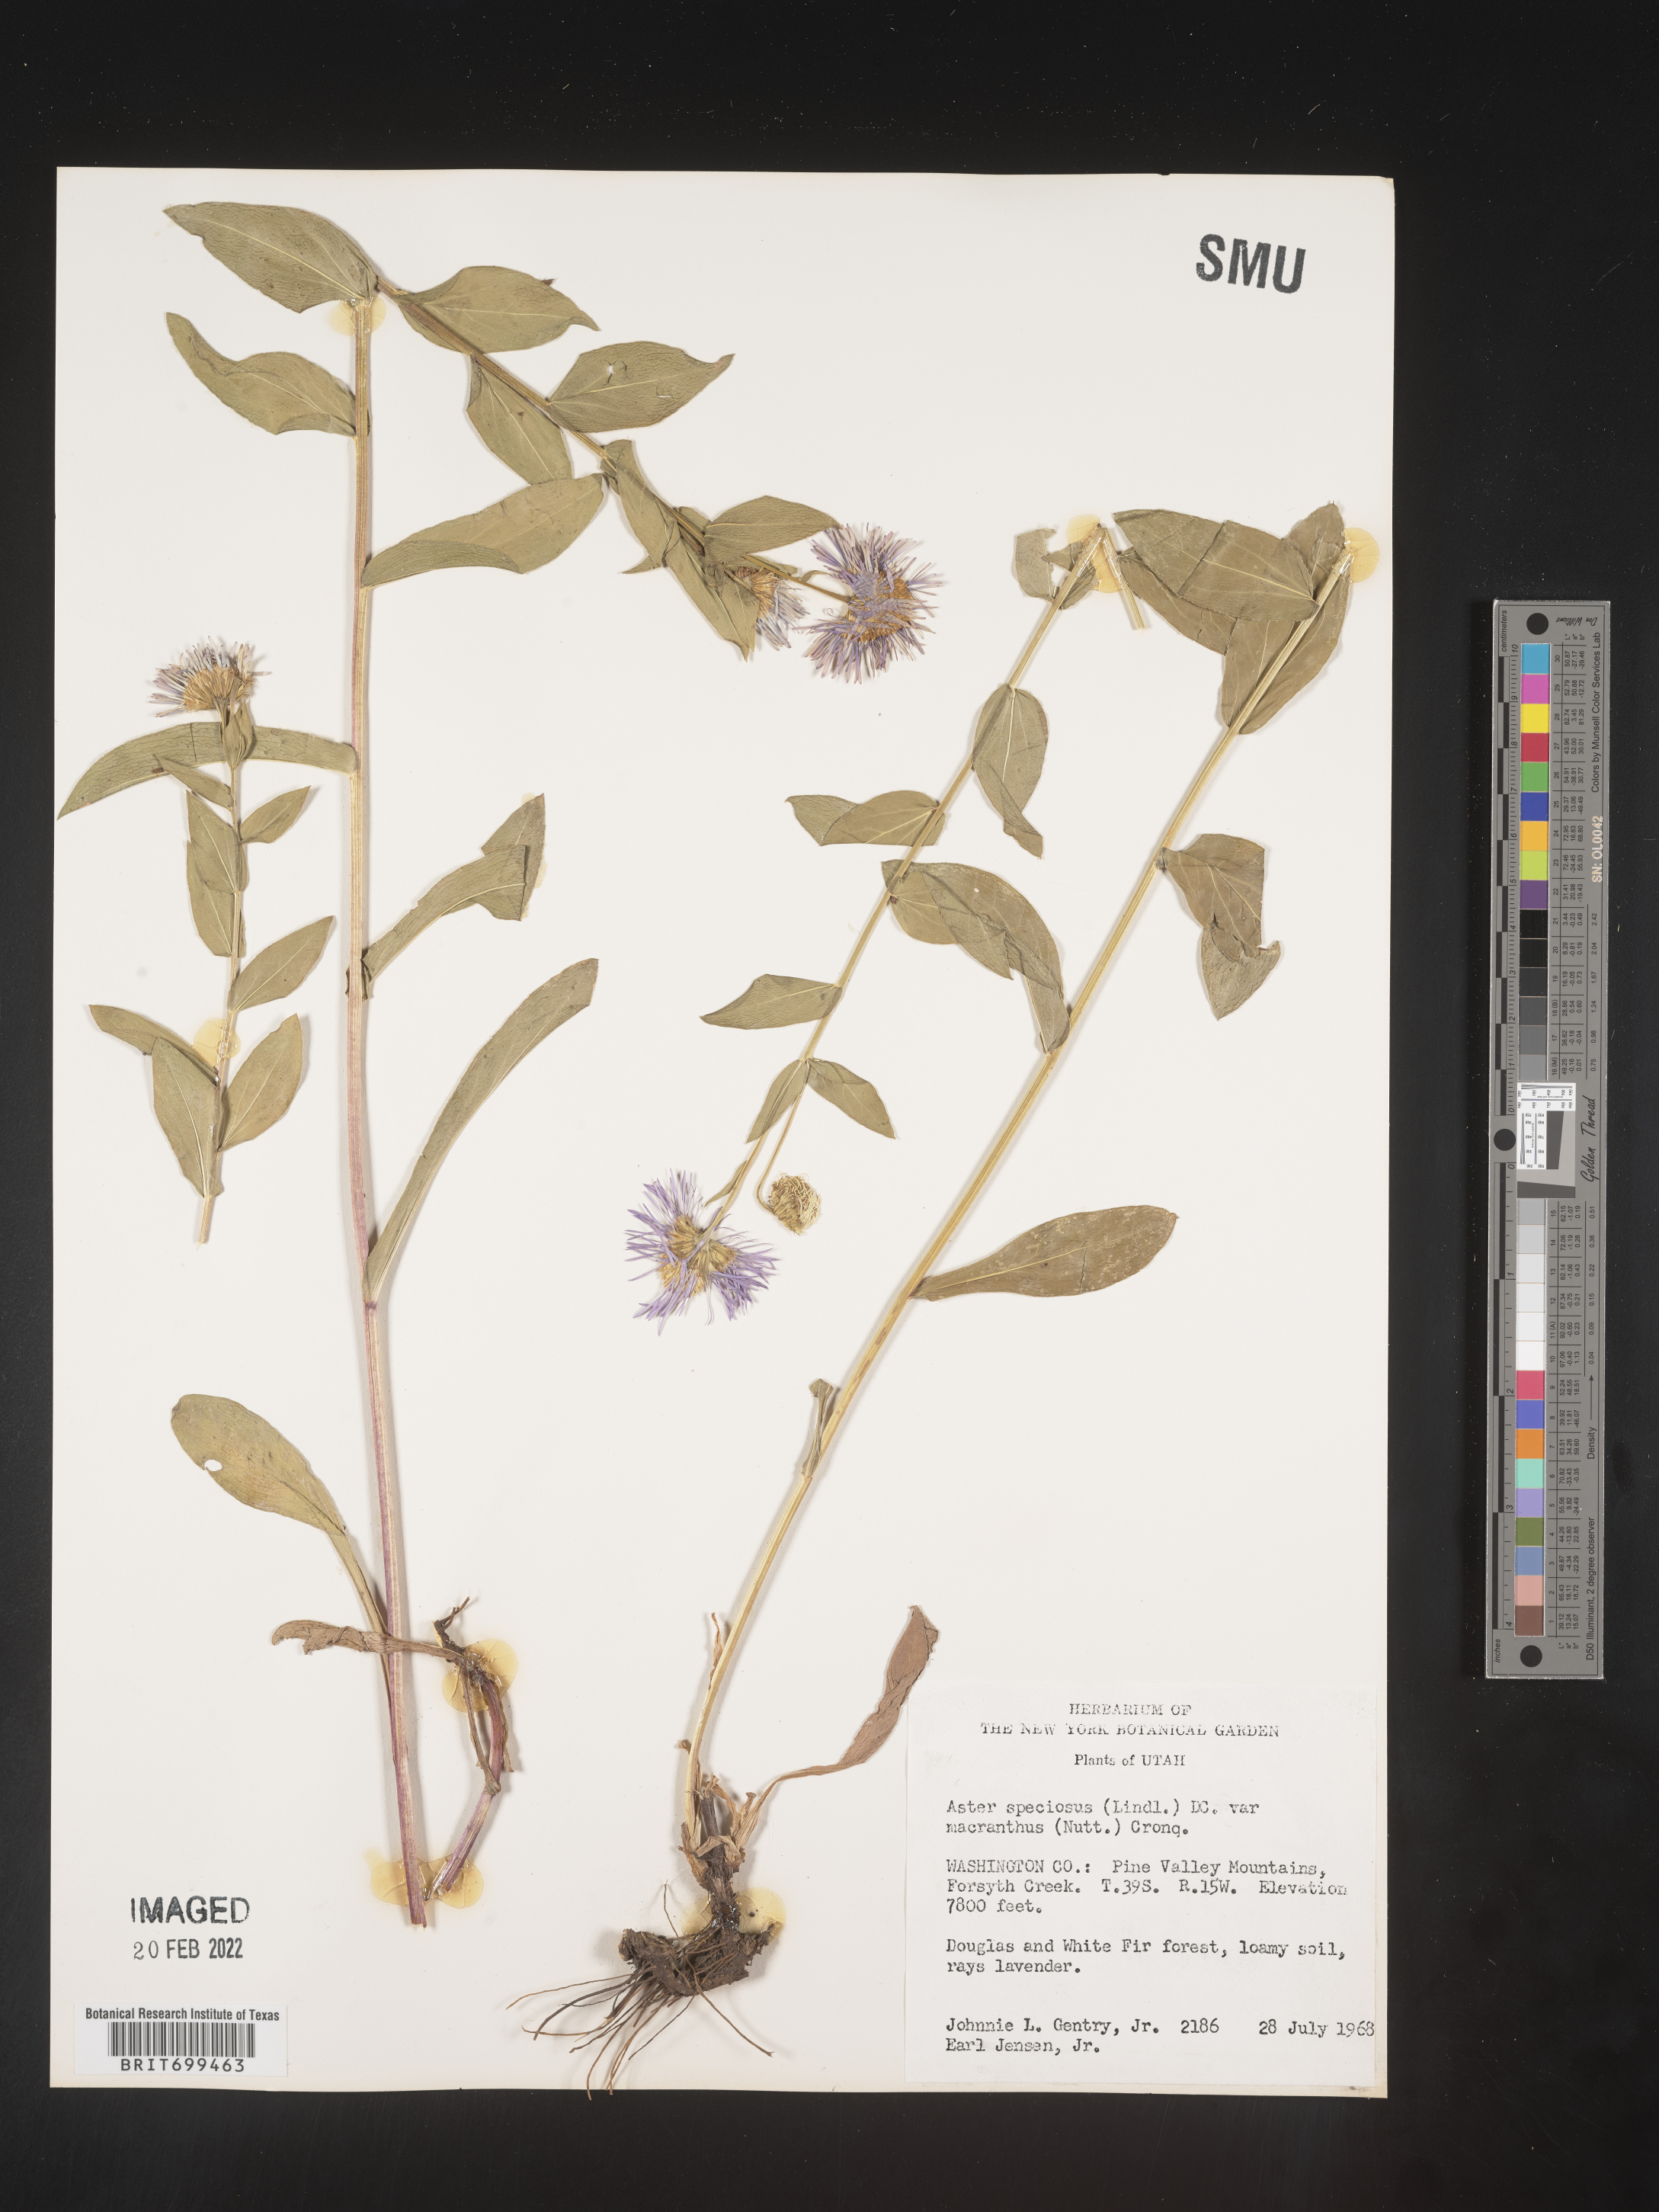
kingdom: Plantae
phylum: Tracheophyta
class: Magnoliopsida
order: Asterales
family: Asteraceae
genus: Erigeron
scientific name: Erigeron speciosus
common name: Aspen fleabane
